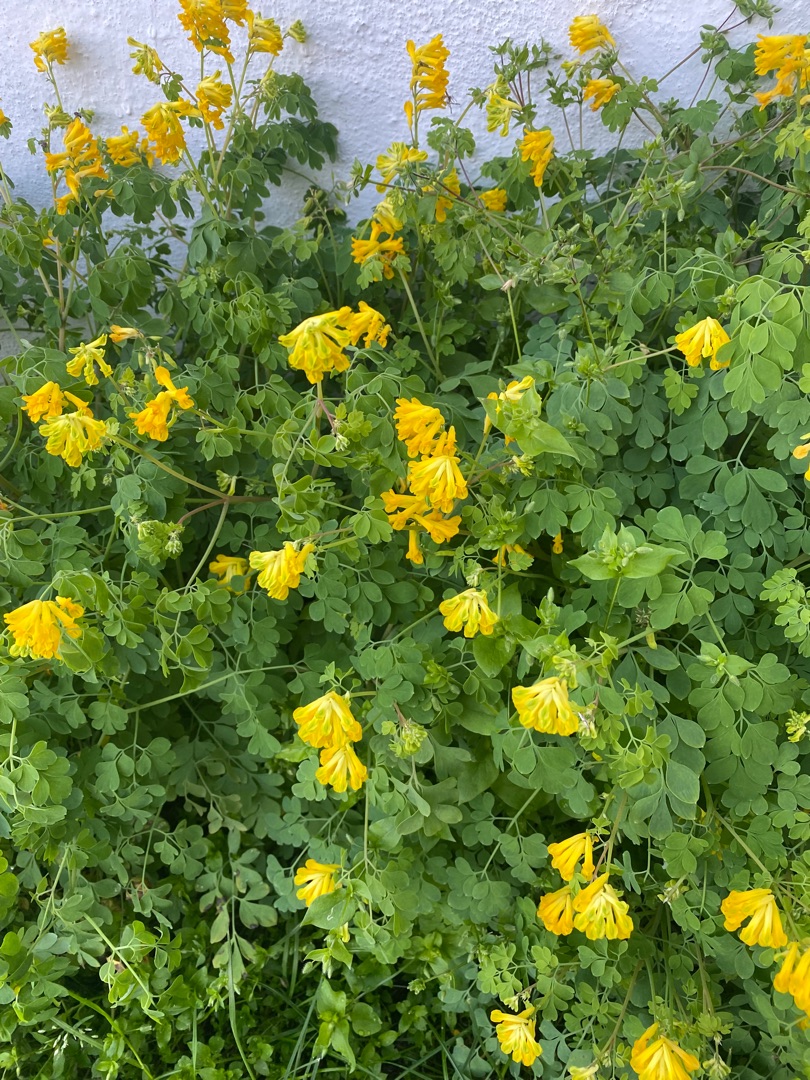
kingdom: Plantae
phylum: Tracheophyta
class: Magnoliopsida
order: Ranunculales
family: Papaveraceae
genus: Pseudofumaria
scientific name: Pseudofumaria lutea
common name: Gul lærkespore
